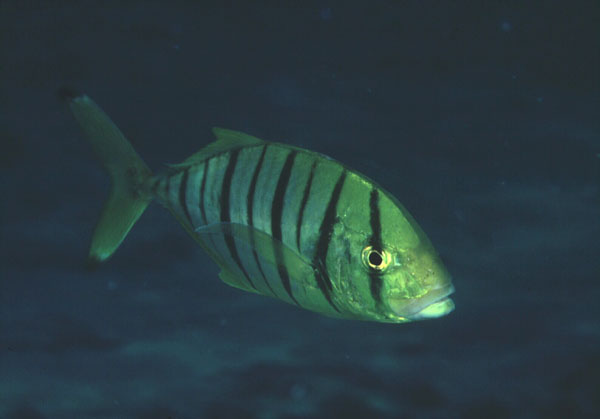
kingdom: Animalia
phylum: Chordata
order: Perciformes
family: Carangidae
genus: Gnathanodon
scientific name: Gnathanodon speciosus
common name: Golden toothless trevally
